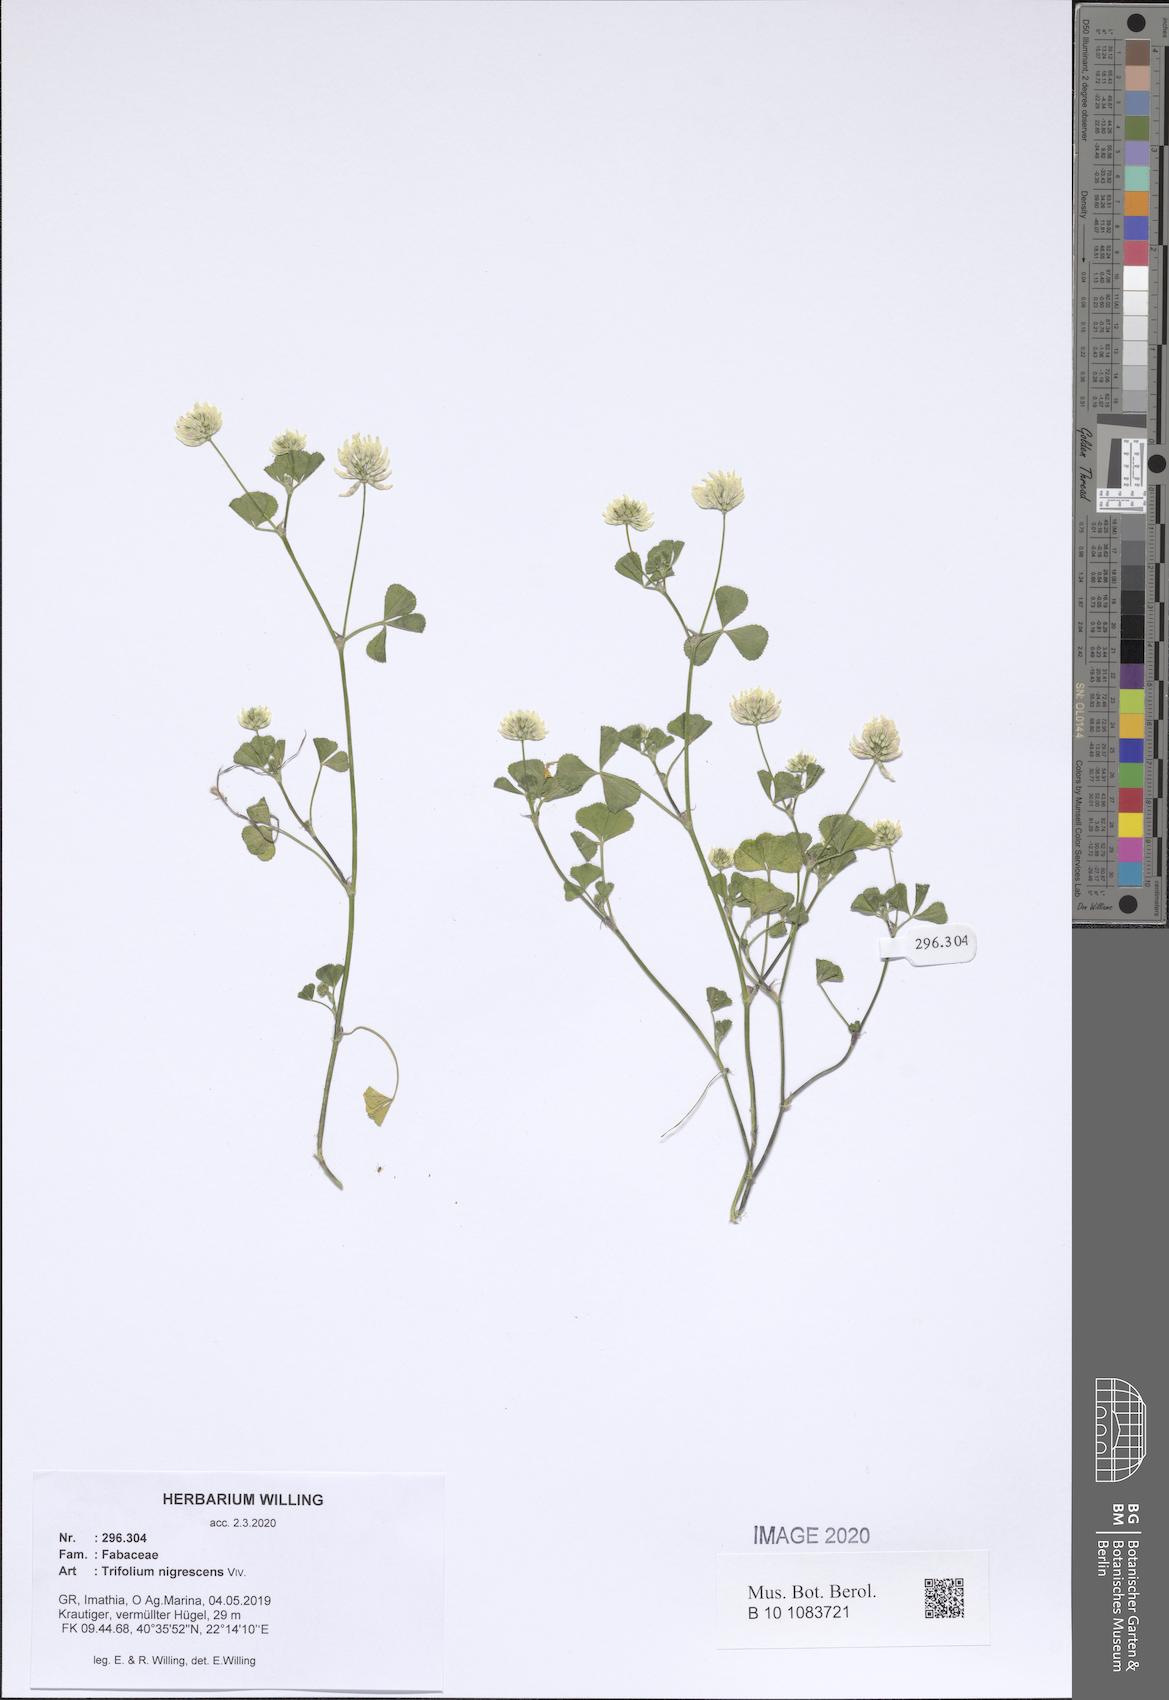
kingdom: Plantae
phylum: Tracheophyta
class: Magnoliopsida
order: Fabales
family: Fabaceae
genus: Trifolium
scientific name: Trifolium nigrescens
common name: Small white clover
